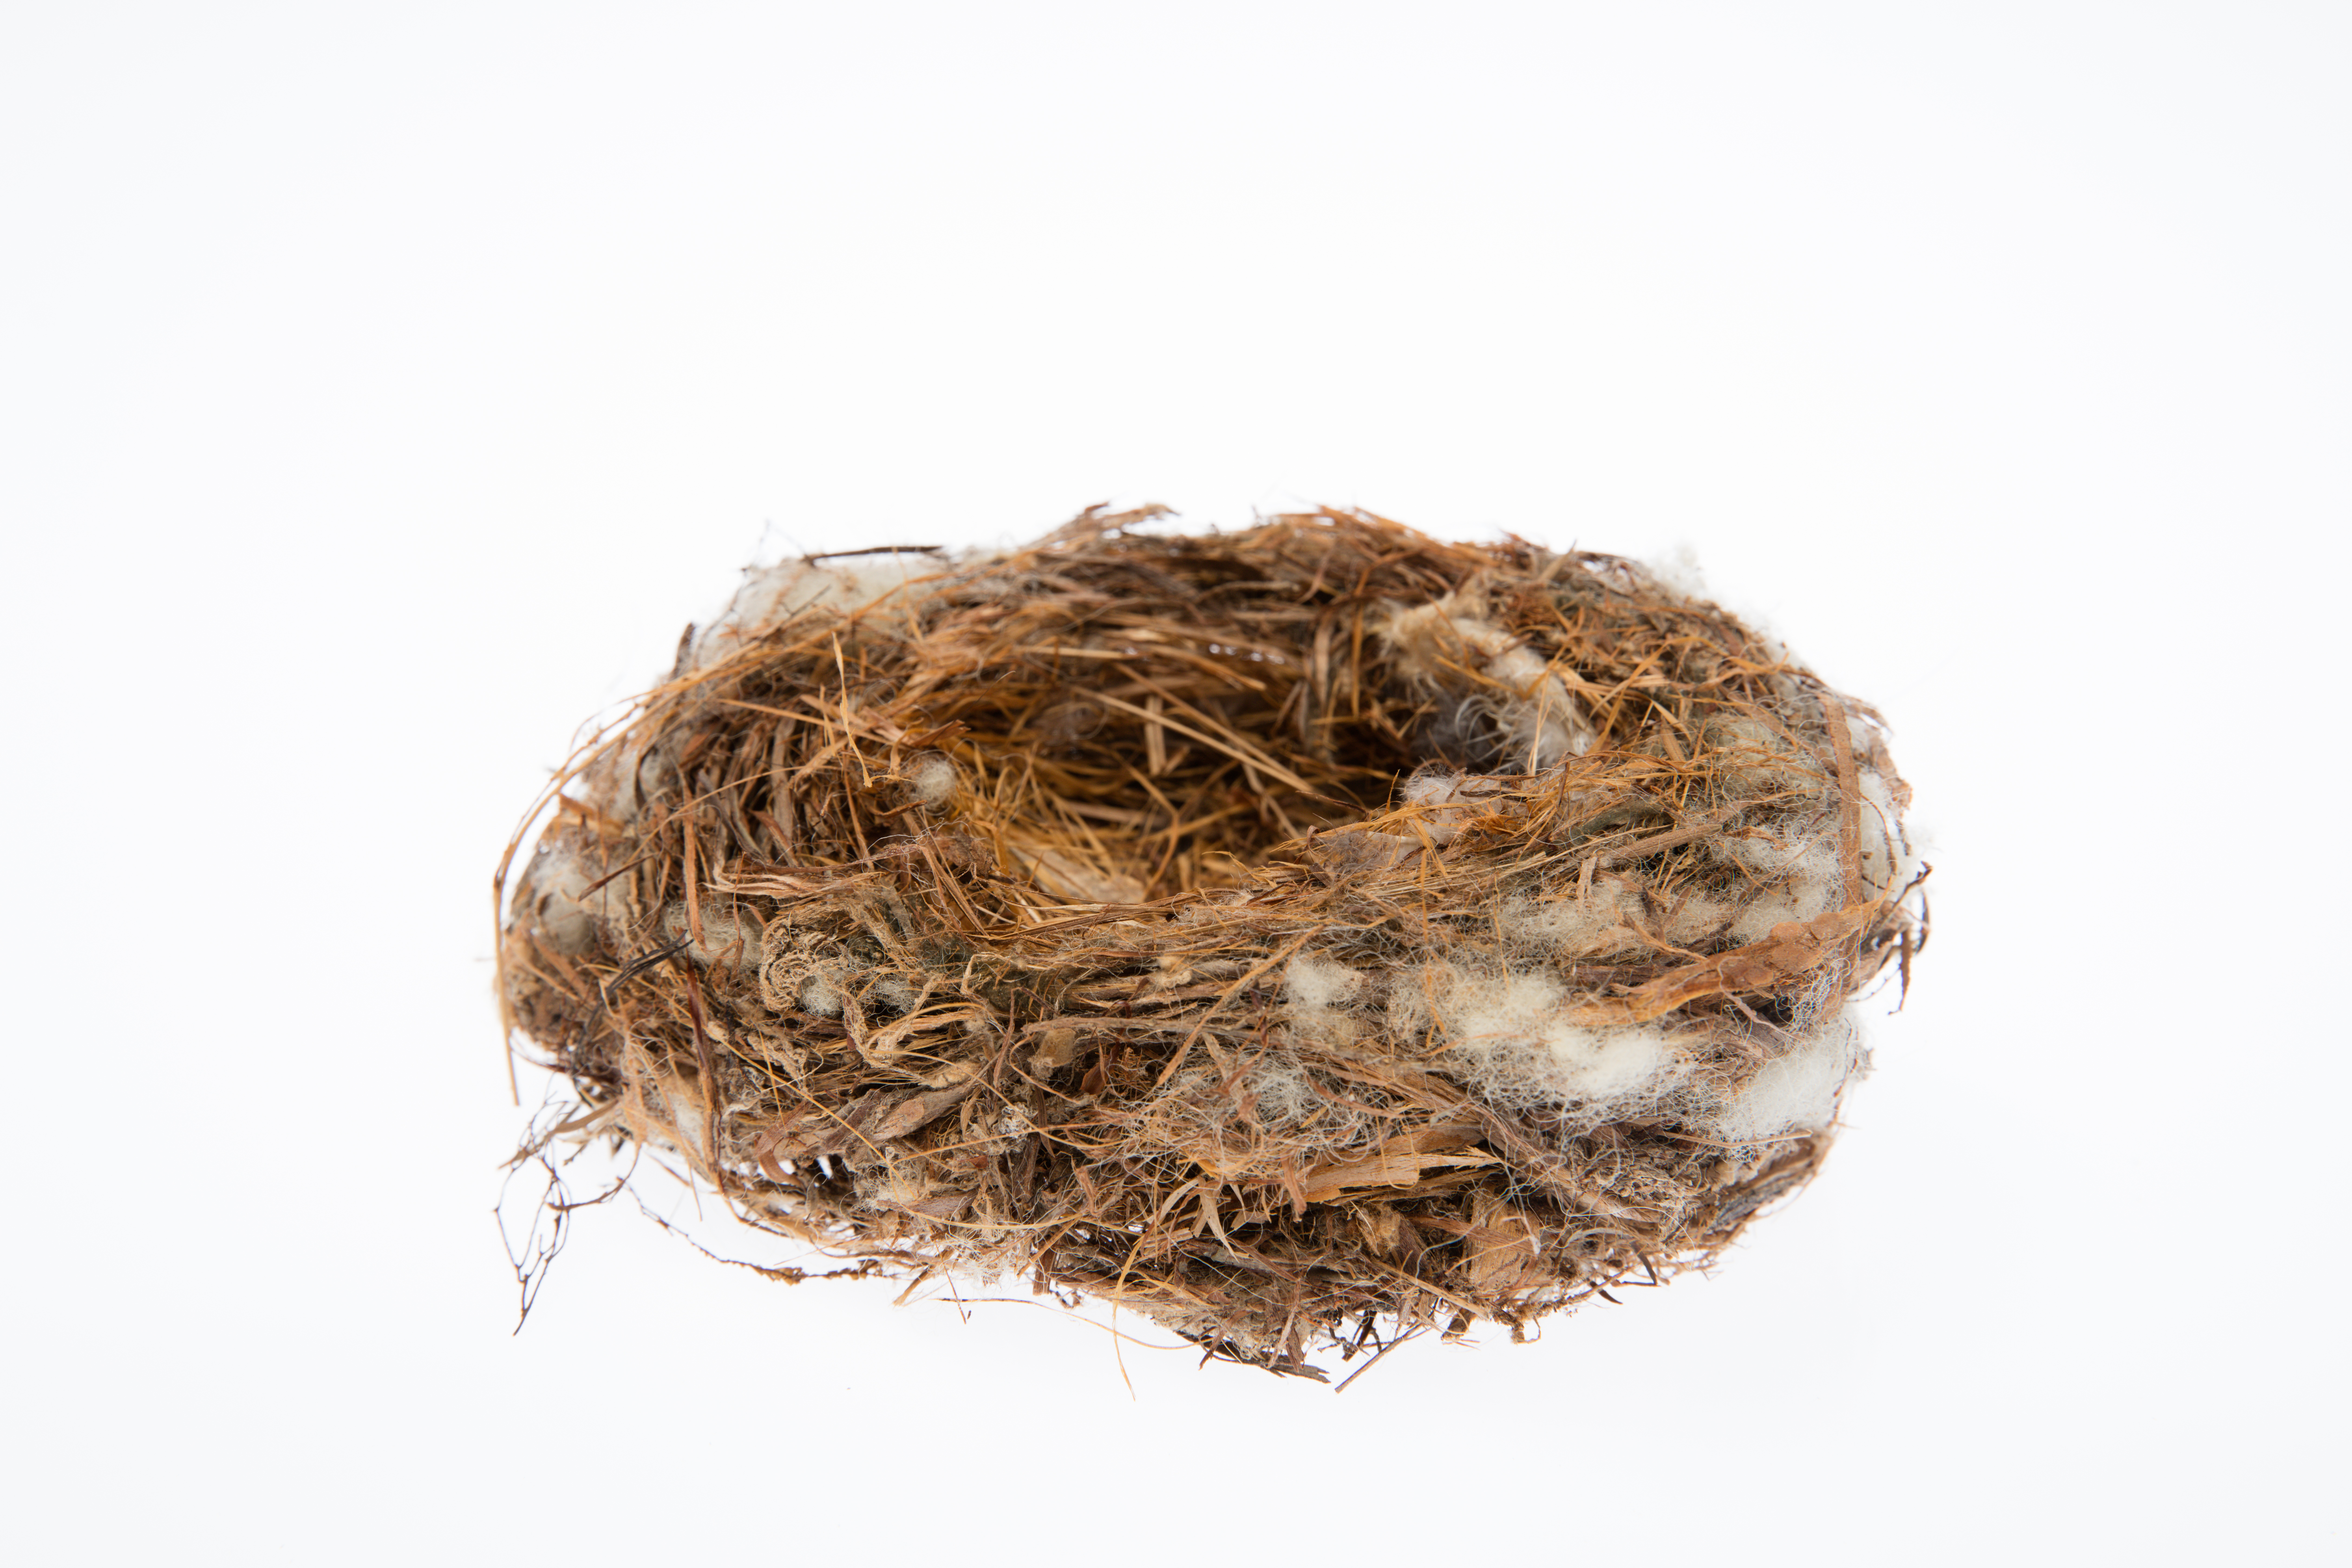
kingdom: Animalia
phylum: Chordata
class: Aves
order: Passeriformes
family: Acanthizidae
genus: Mohoua
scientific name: Mohoua albicilla
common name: Whitehead
